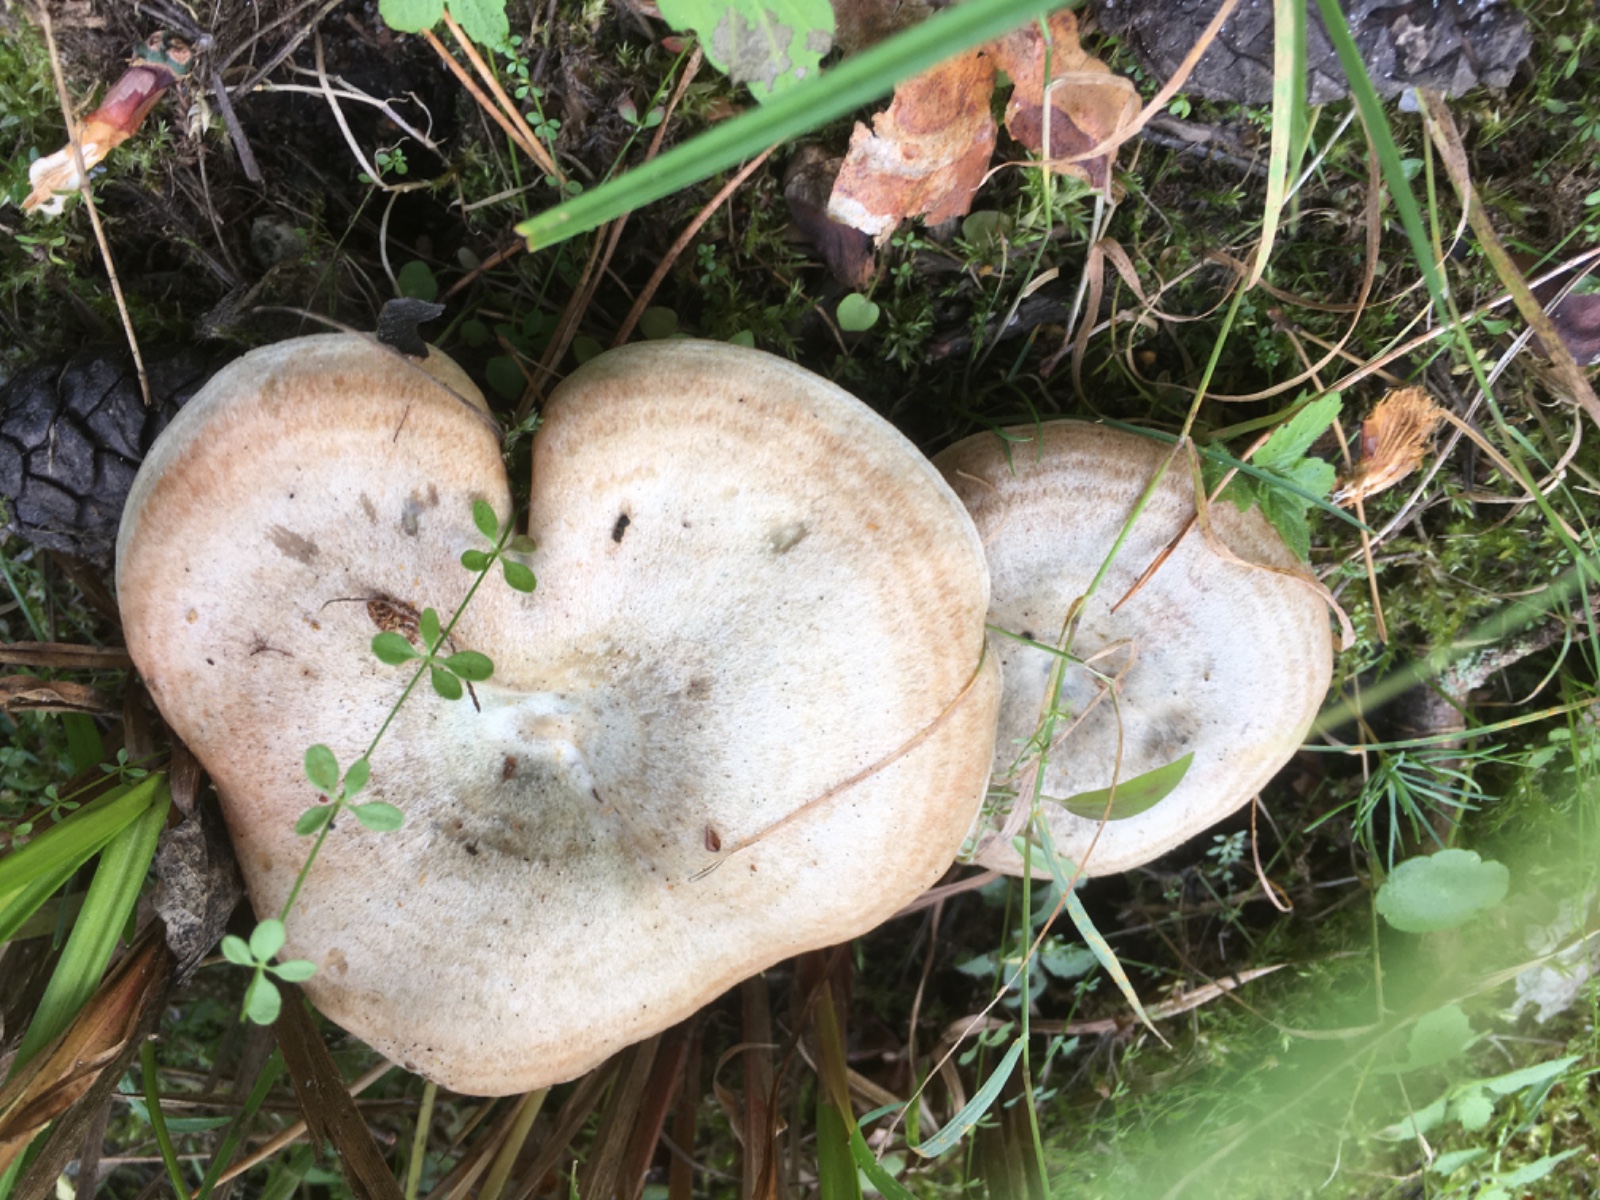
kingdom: Fungi
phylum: Basidiomycota
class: Agaricomycetes
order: Russulales
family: Russulaceae
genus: Lactarius
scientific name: Lactarius quieticolor
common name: tvefarvet mælkehat
